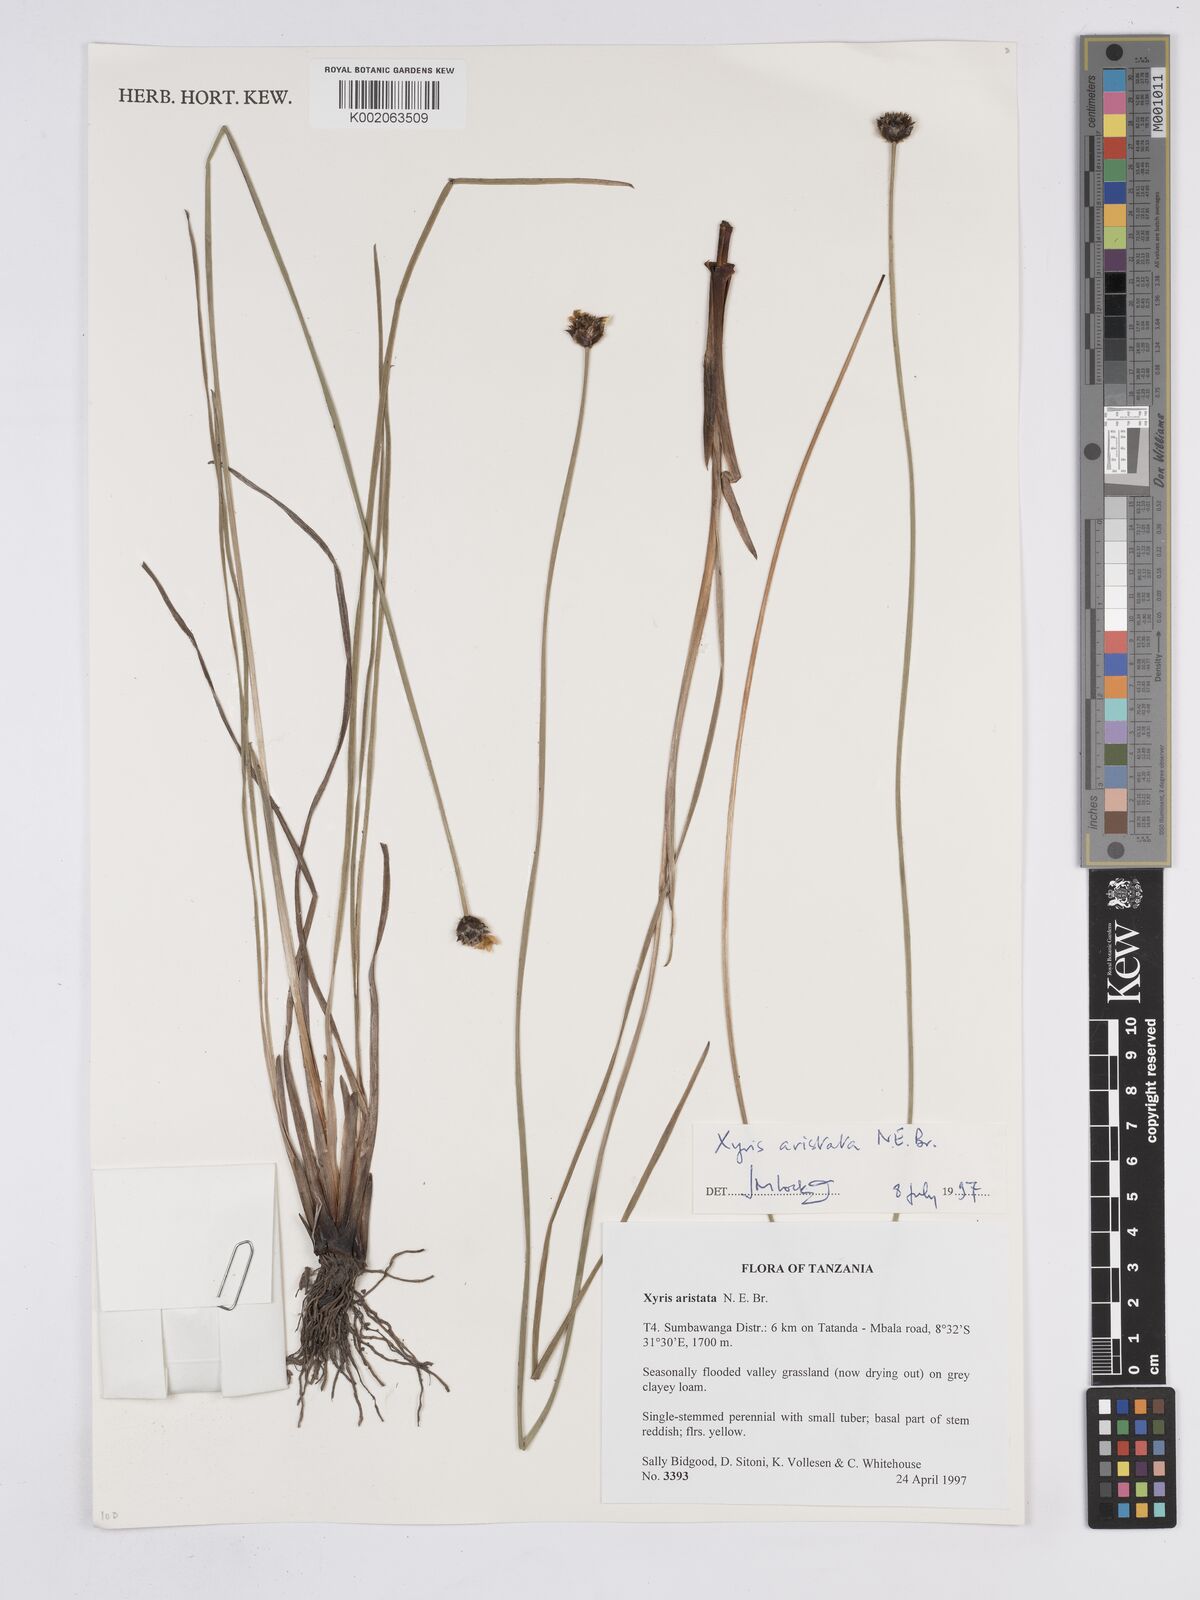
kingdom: Plantae
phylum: Tracheophyta
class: Liliopsida
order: Poales
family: Xyridaceae
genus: Xyris
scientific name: Xyris aristata
